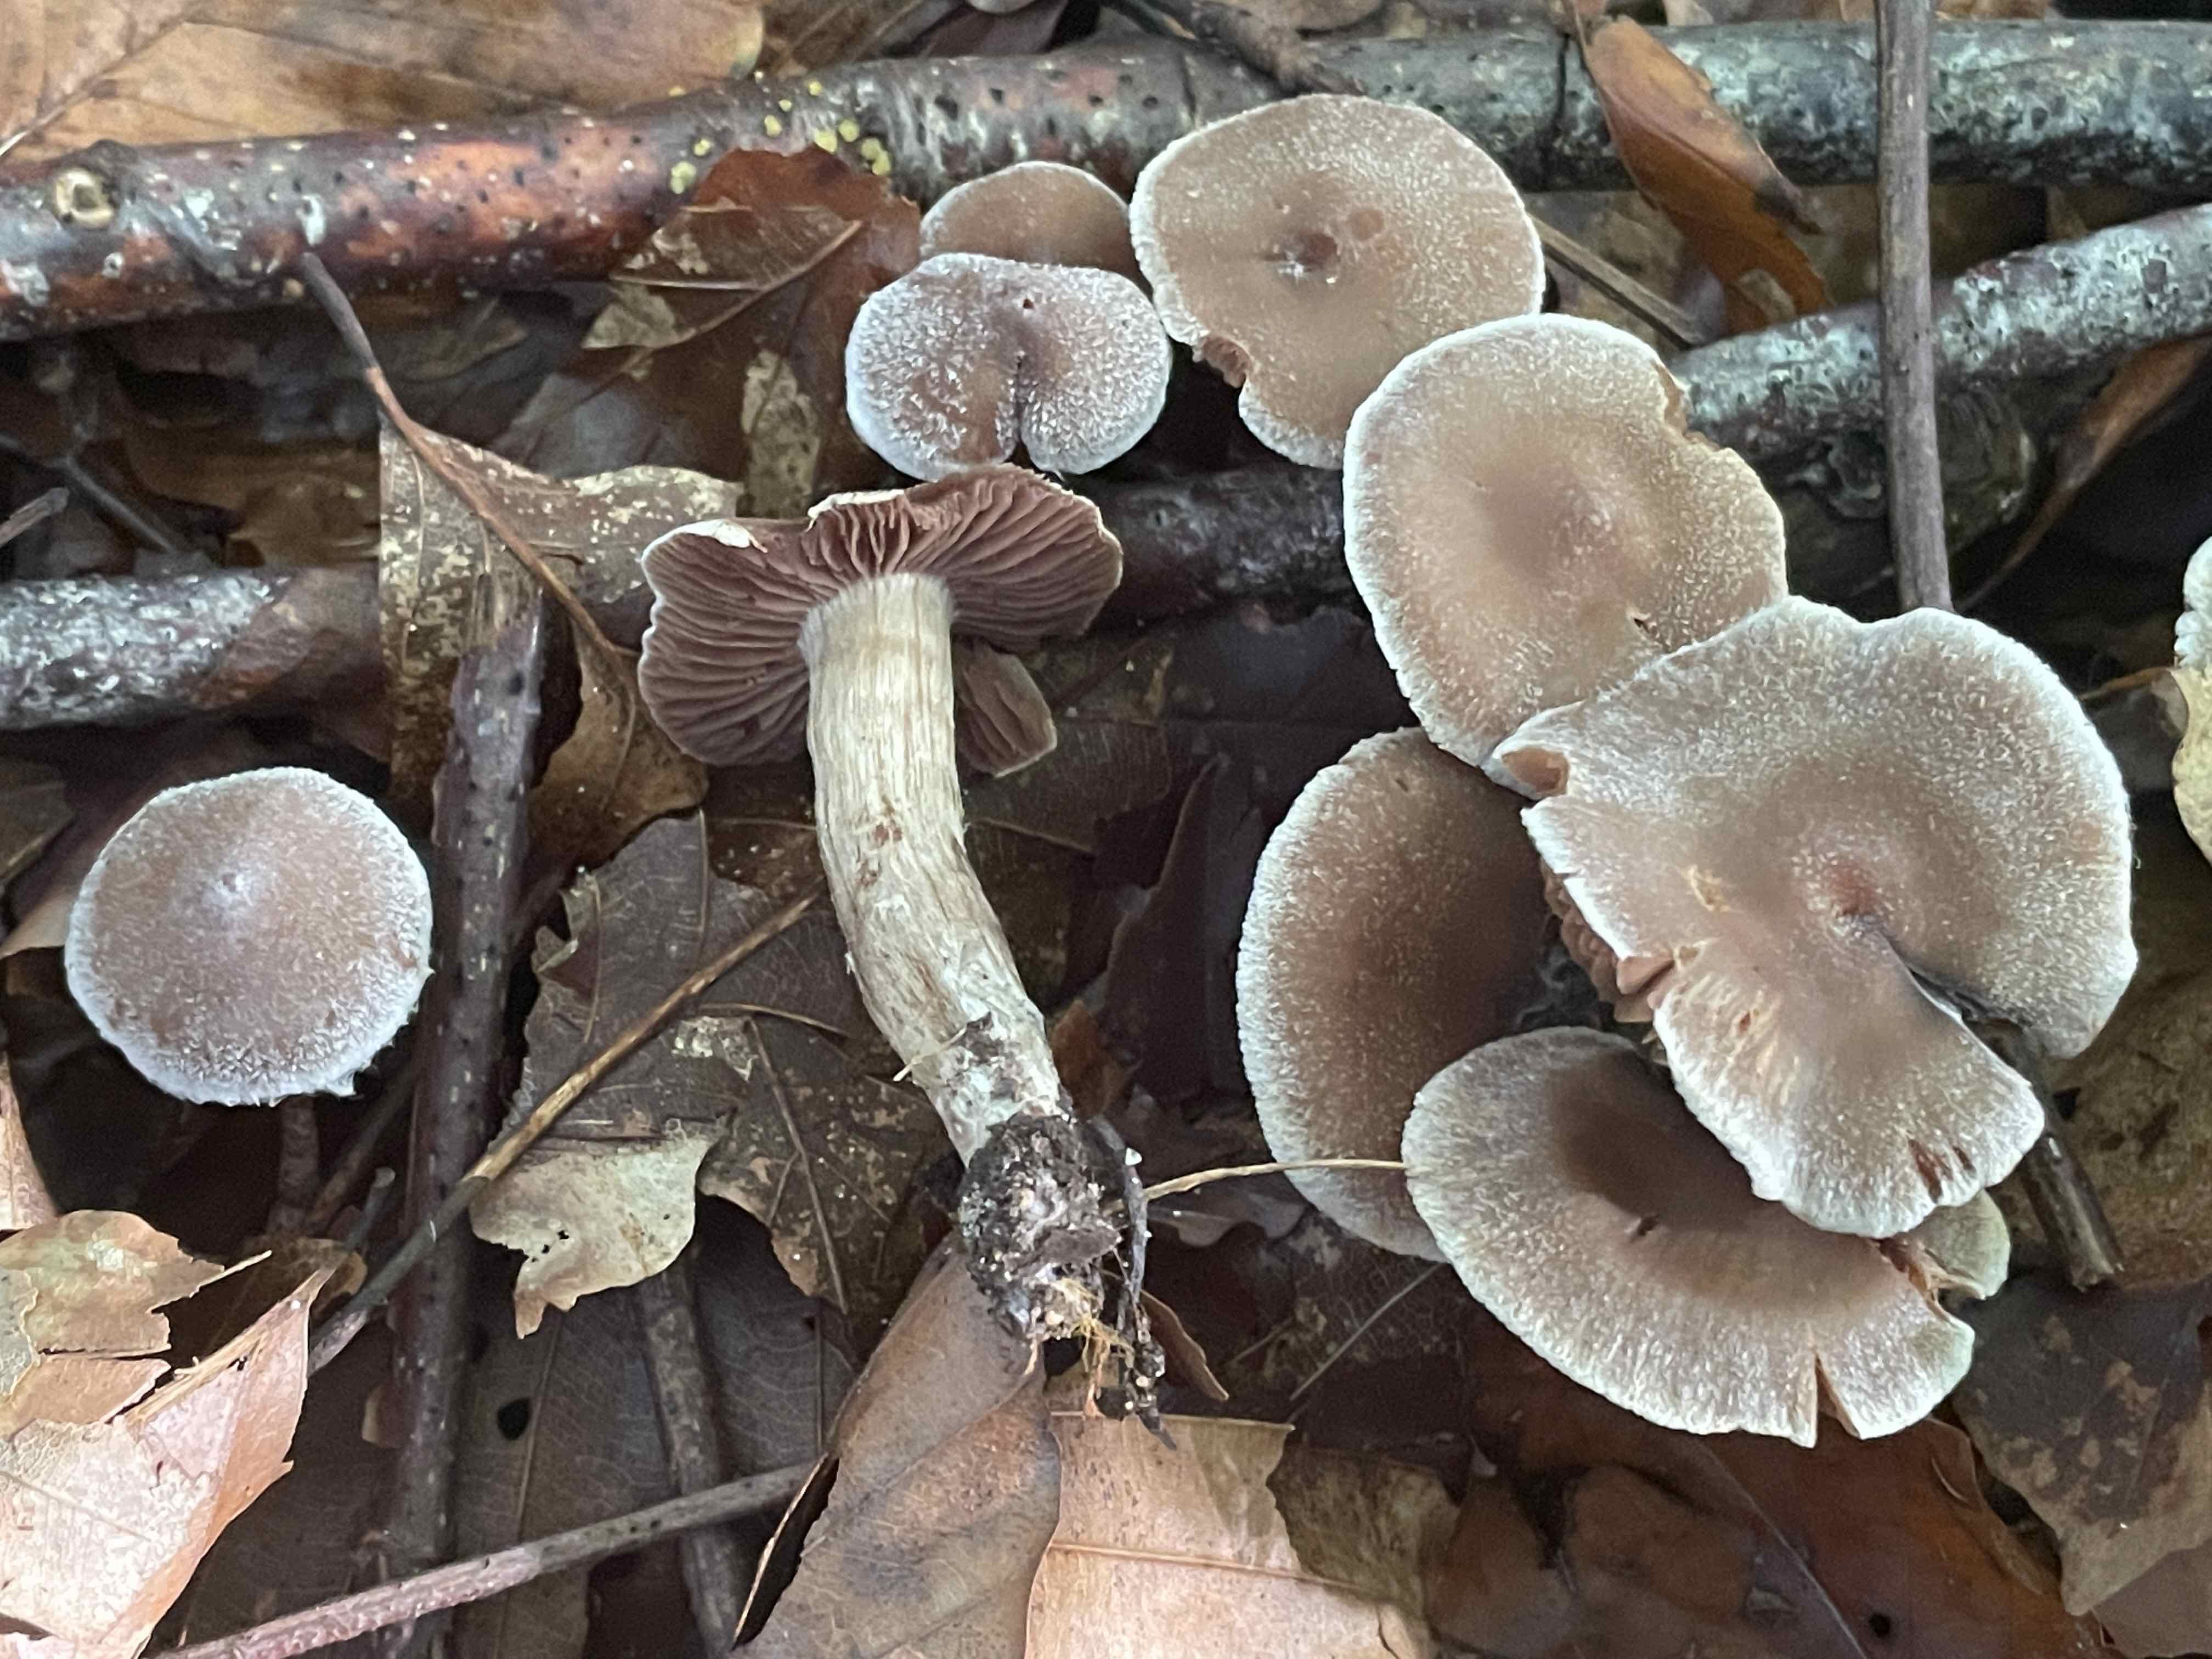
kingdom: Fungi
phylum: Basidiomycota
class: Agaricomycetes
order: Agaricales
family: Cortinariaceae
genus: Cortinarius
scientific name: Cortinarius geraniolens
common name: geranium-slørhat
